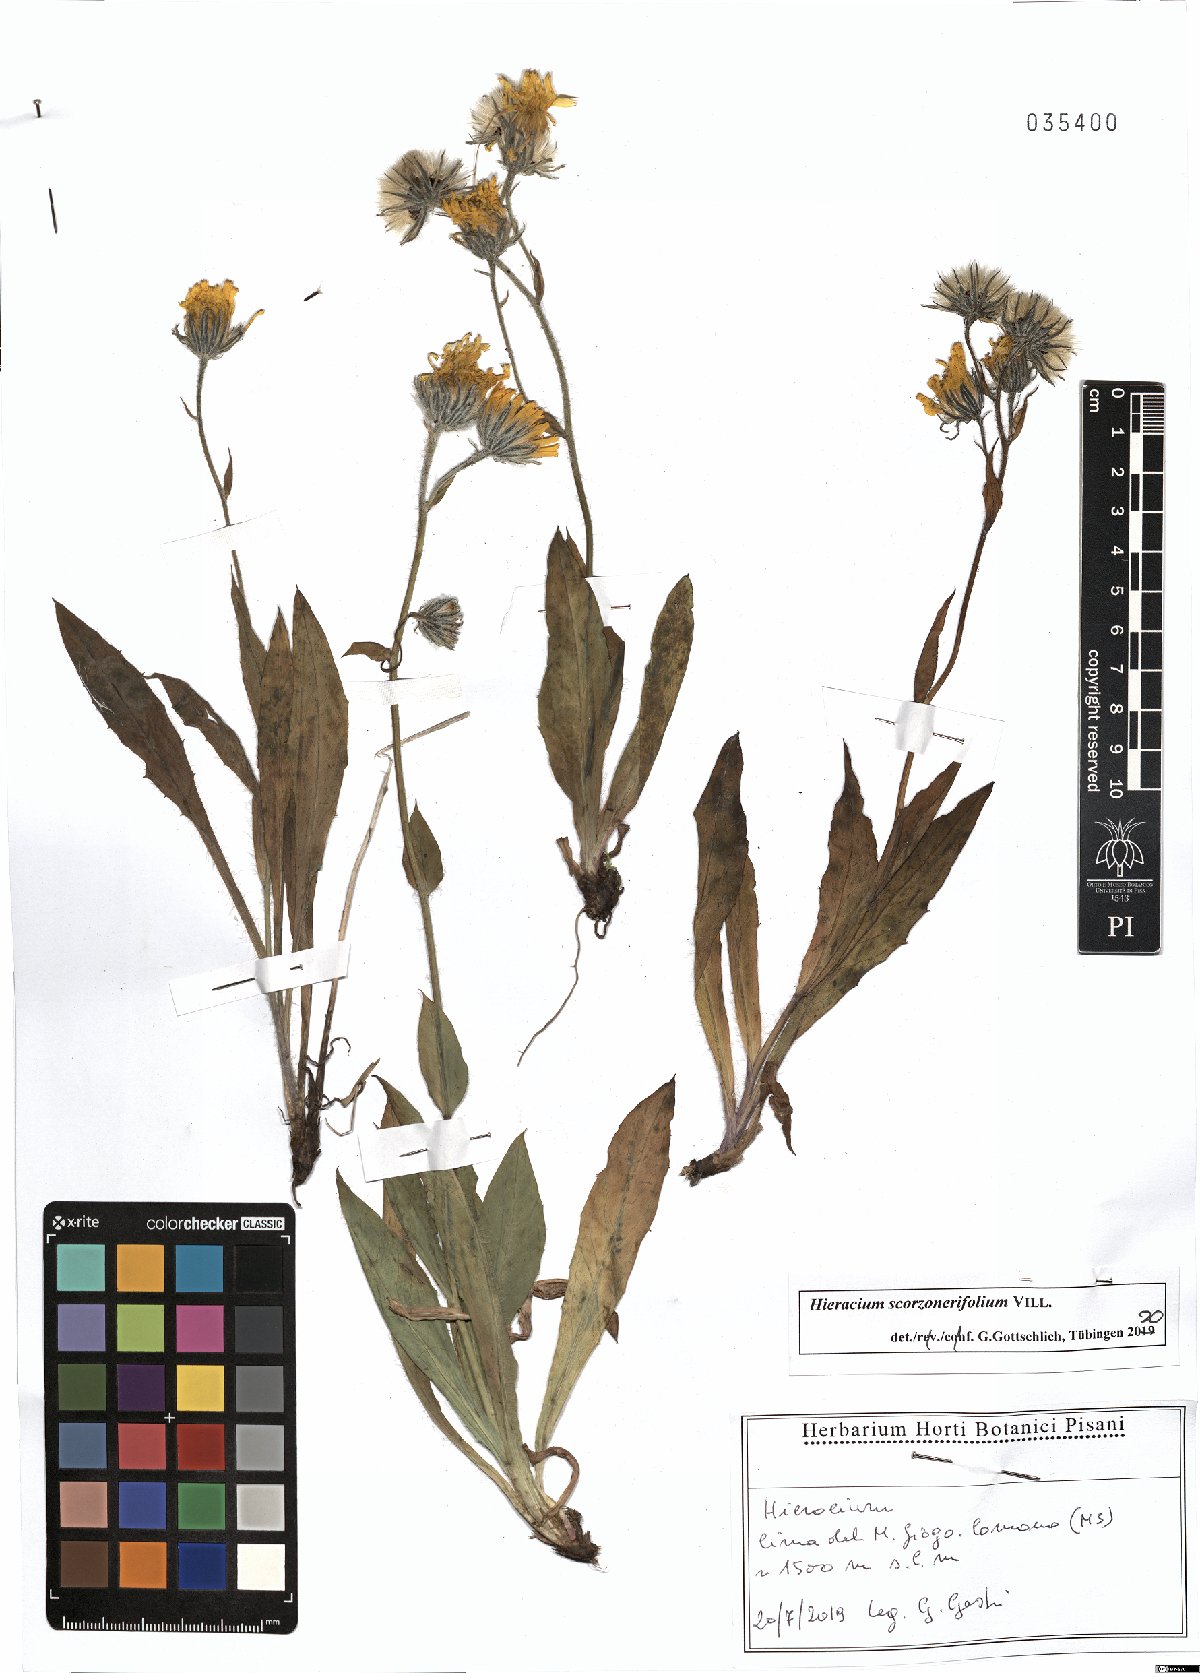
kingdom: Plantae
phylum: Tracheophyta
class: Magnoliopsida
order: Asterales
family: Asteraceae
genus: Hieracium
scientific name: Hieracium scorzonerifolium
